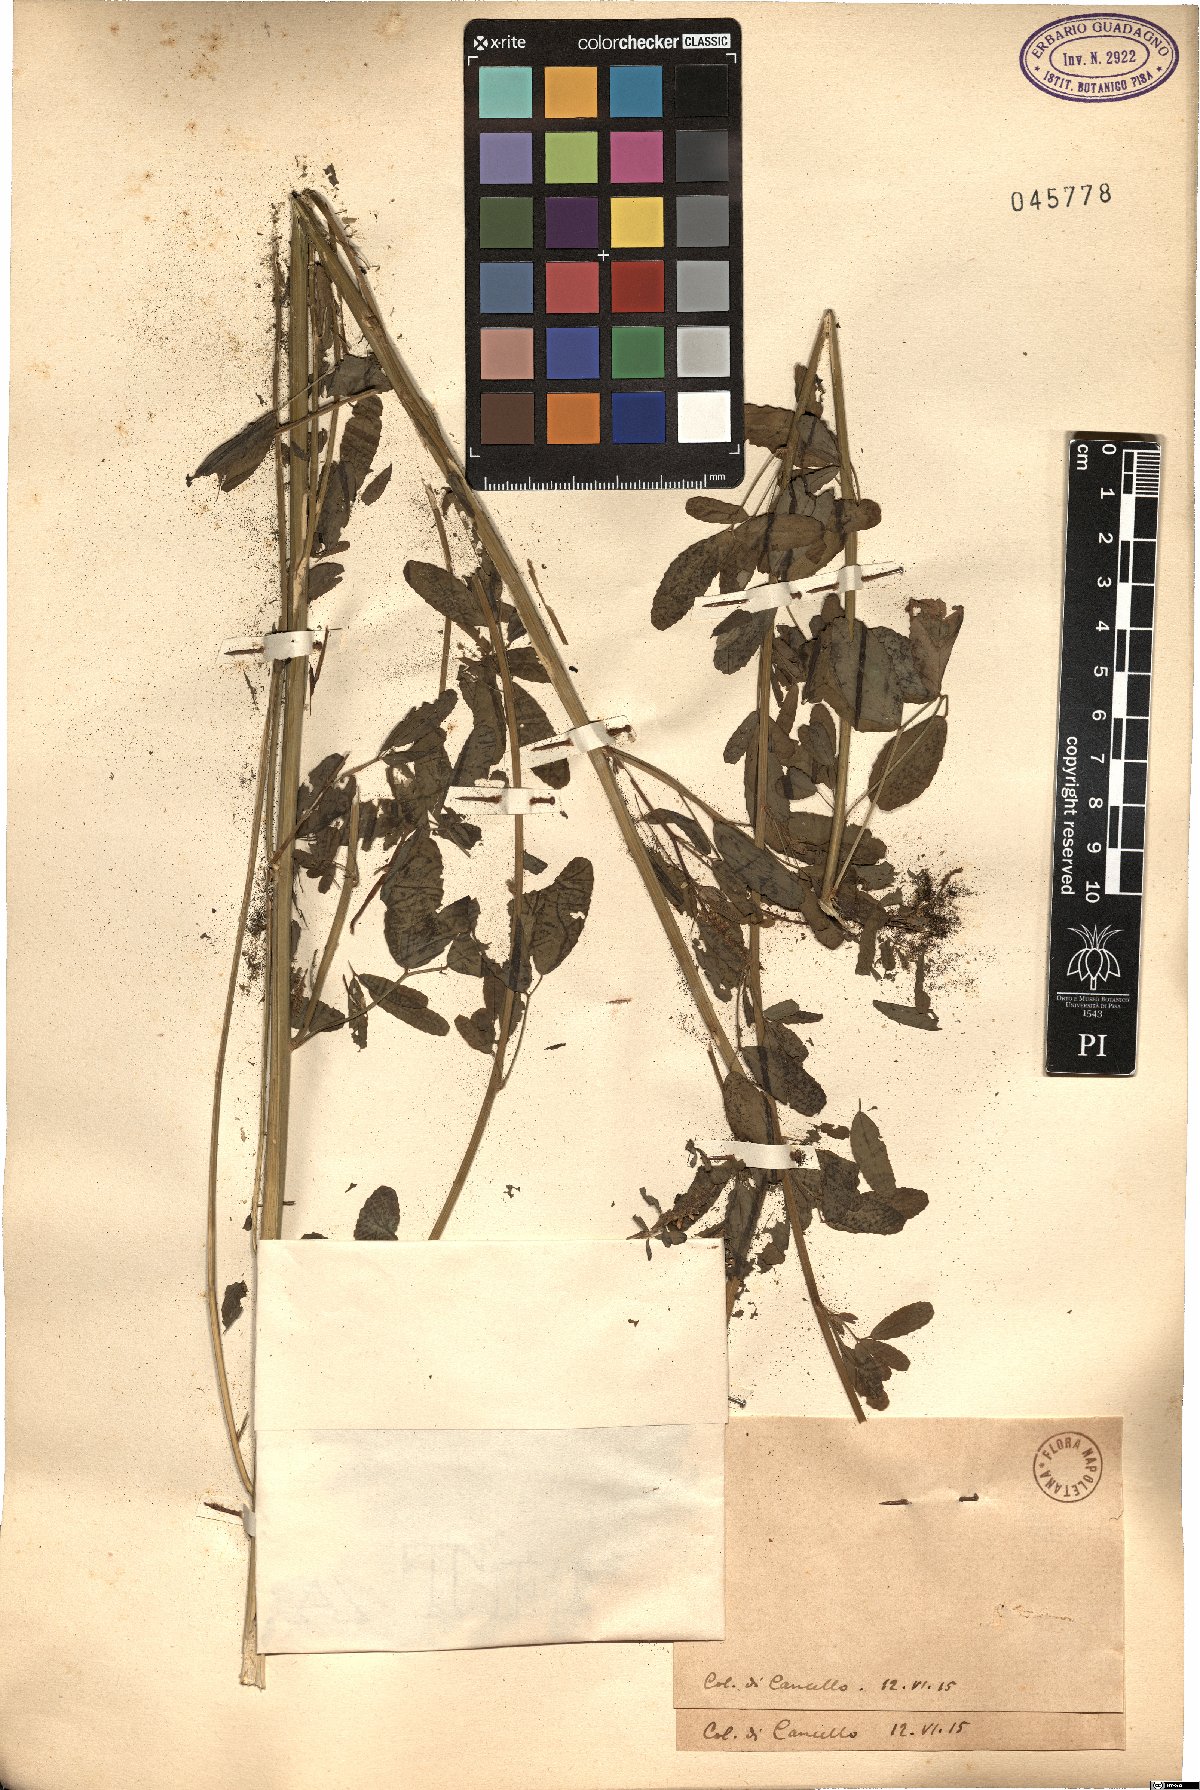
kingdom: Plantae
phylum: Tracheophyta
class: Magnoliopsida
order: Fabales
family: Fabaceae
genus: Melilotus
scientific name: Melilotus
